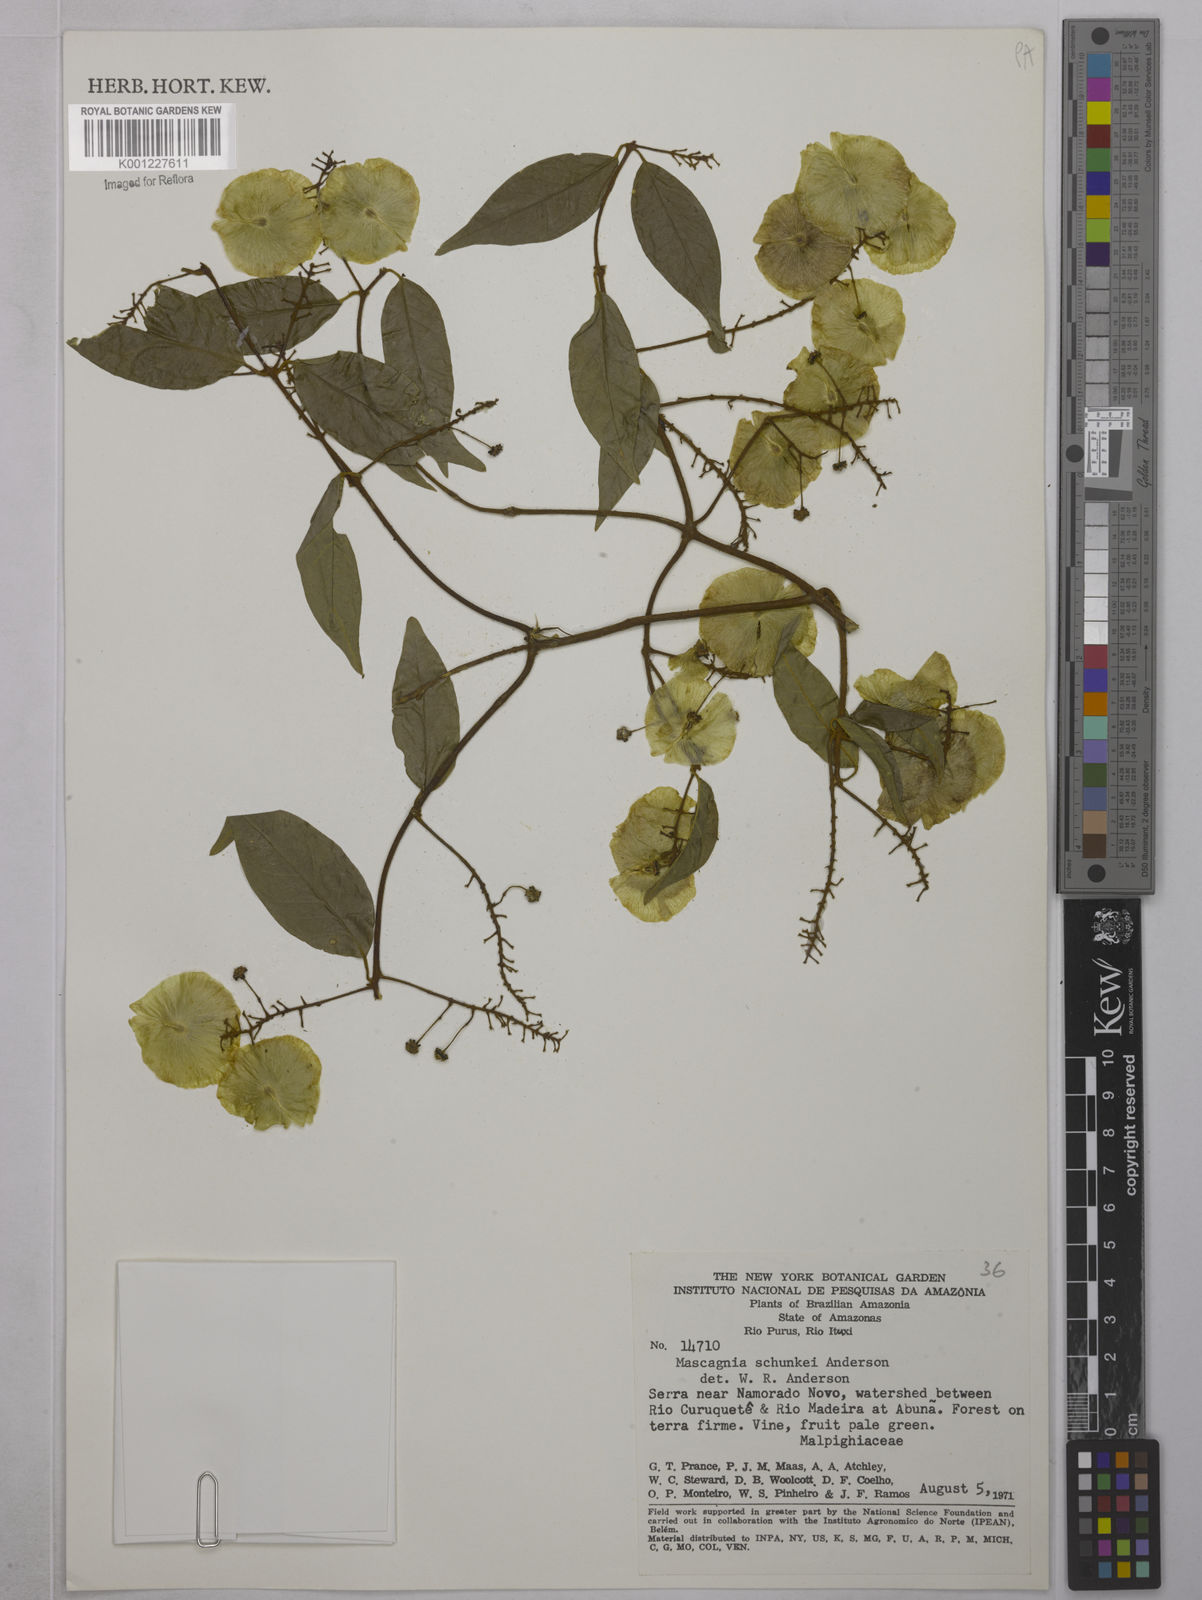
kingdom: Plantae
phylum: Tracheophyta
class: Magnoliopsida
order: Malpighiales
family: Malpighiaceae
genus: Mascagnia
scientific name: Mascagnia schunkei
